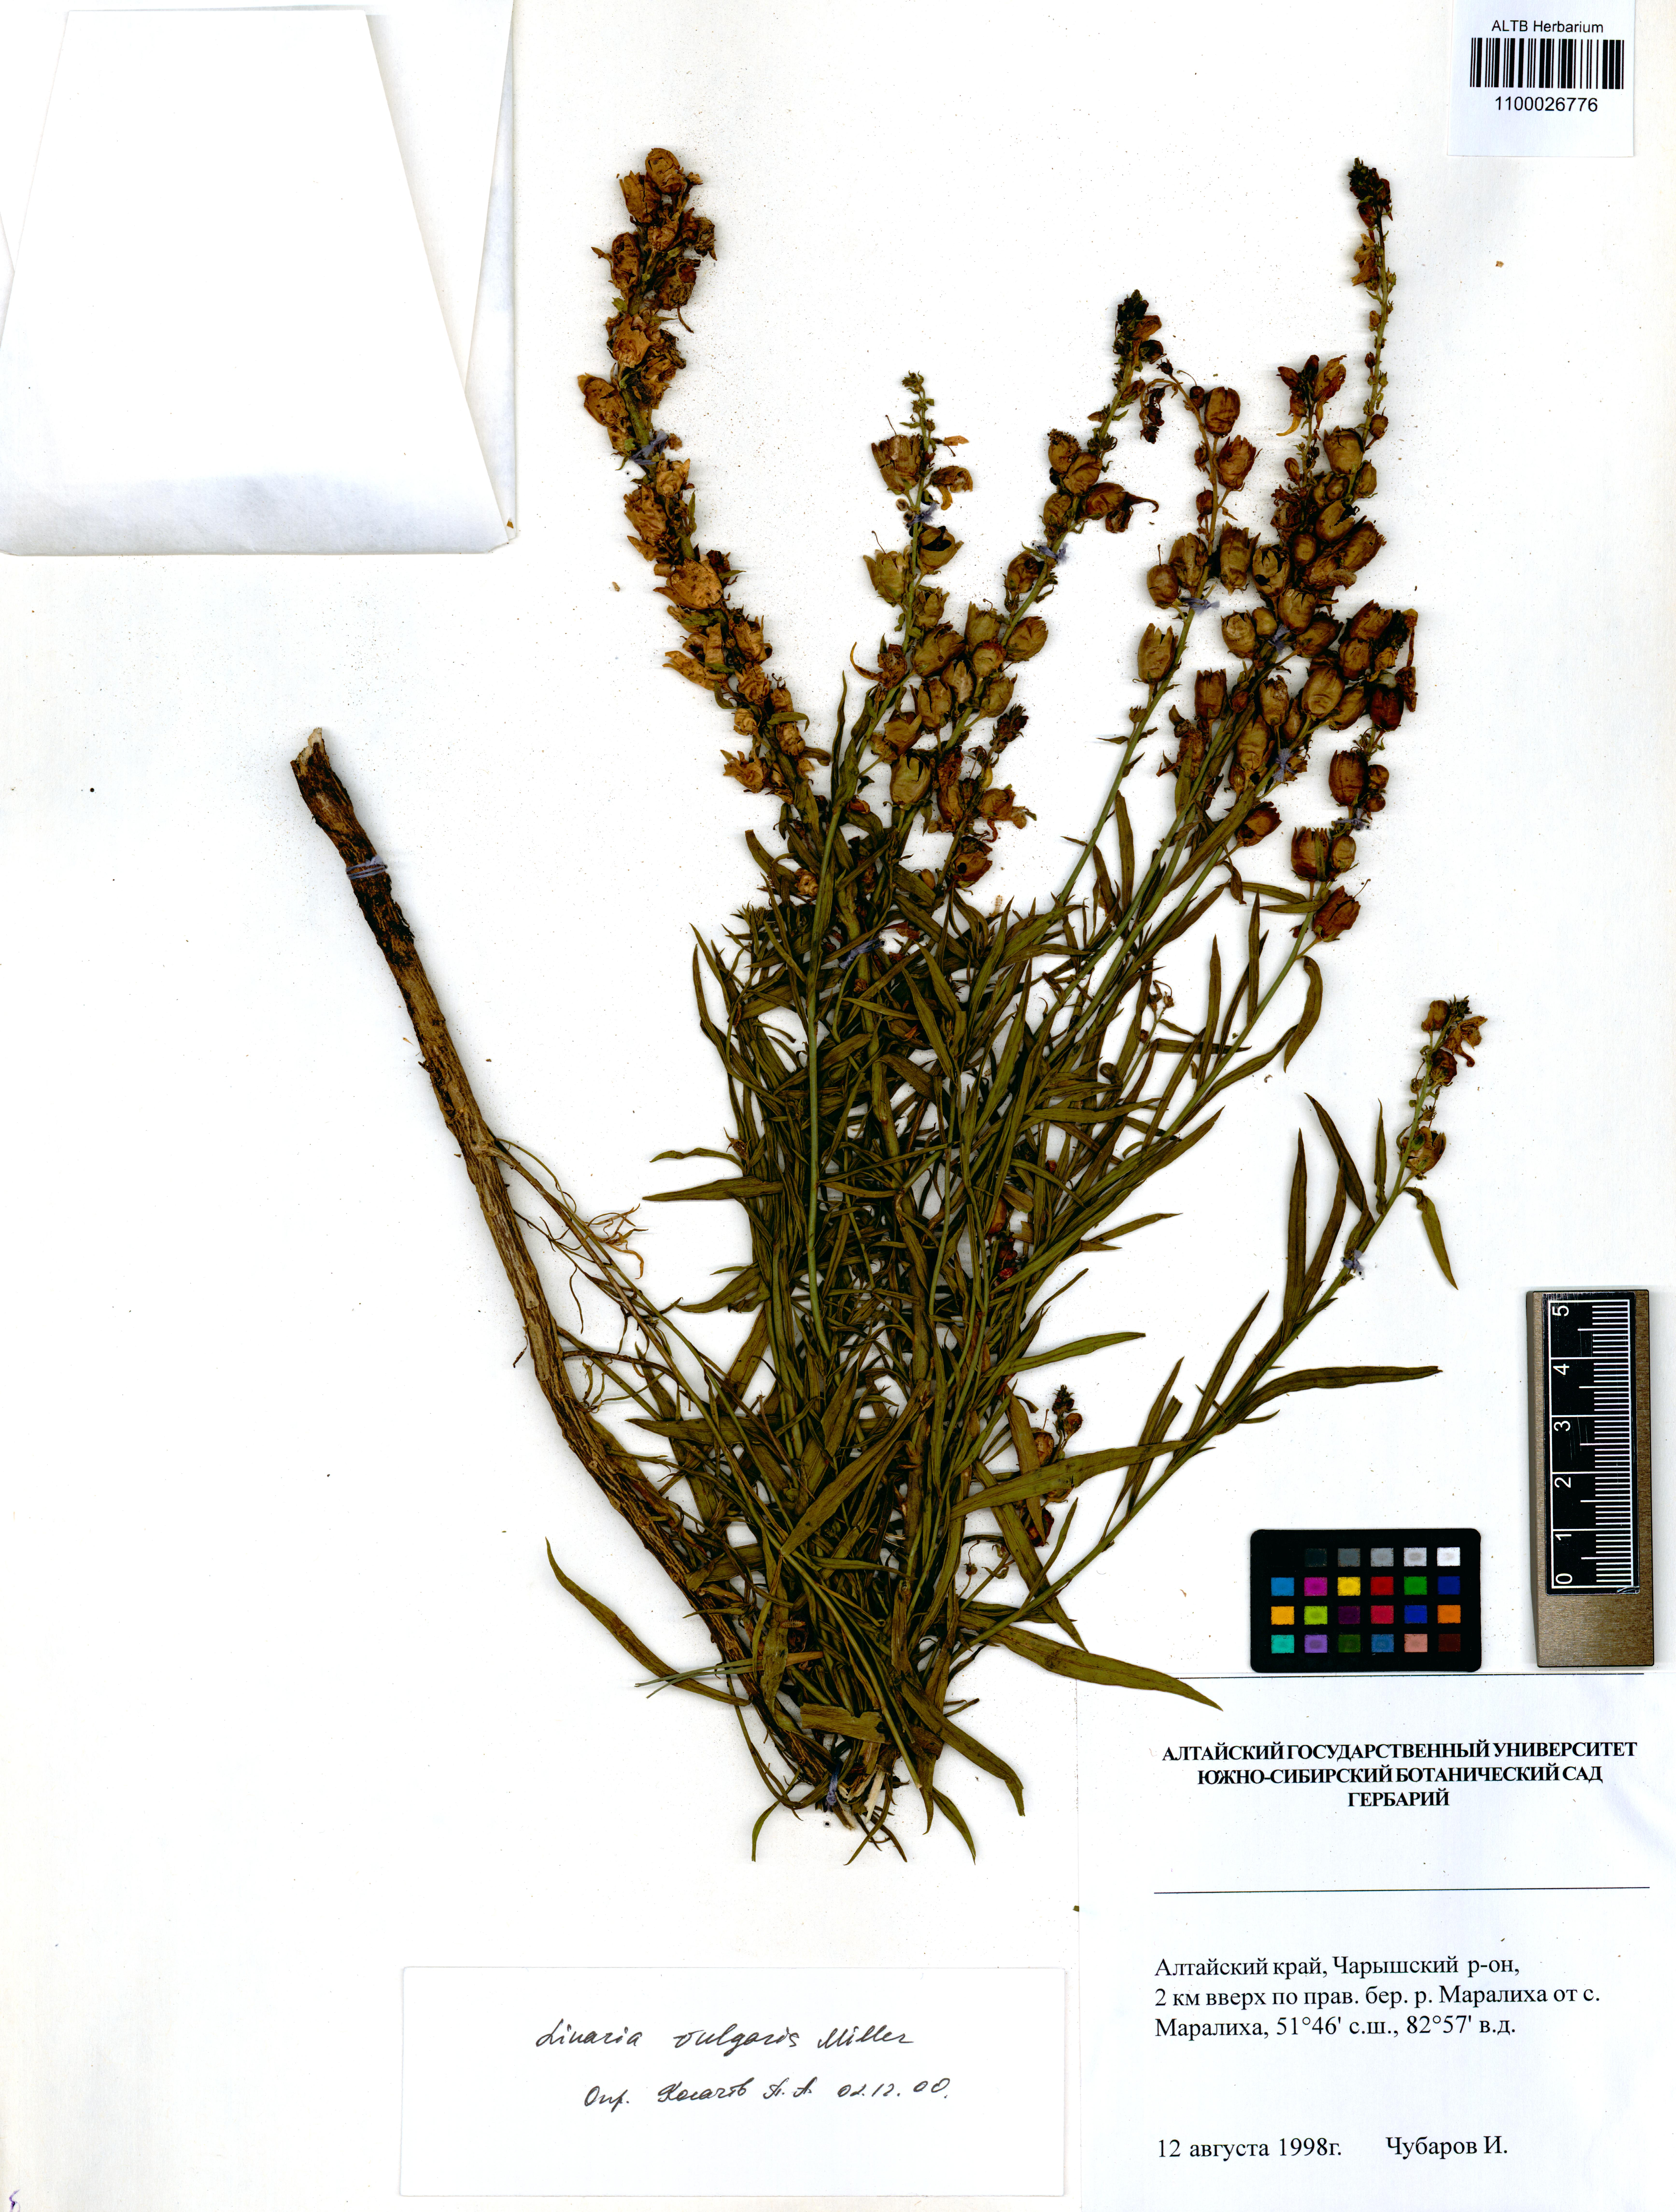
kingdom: Plantae
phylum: Tracheophyta
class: Magnoliopsida
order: Lamiales
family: Plantaginaceae
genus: Linaria
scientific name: Linaria vulgaris
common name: Butter and eggs
